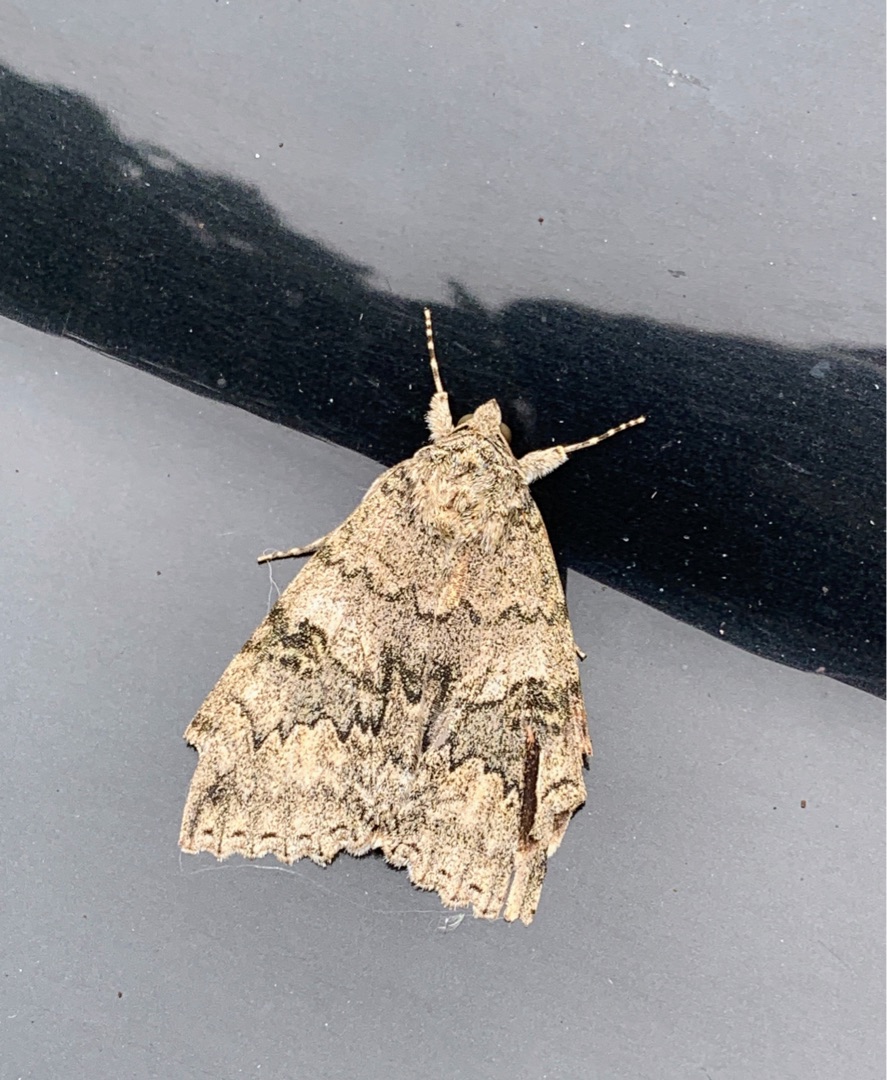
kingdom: Animalia
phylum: Arthropoda
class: Insecta
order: Lepidoptera
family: Erebidae
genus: Catocala
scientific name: Catocala nupta
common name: Rødt ordensbånd
